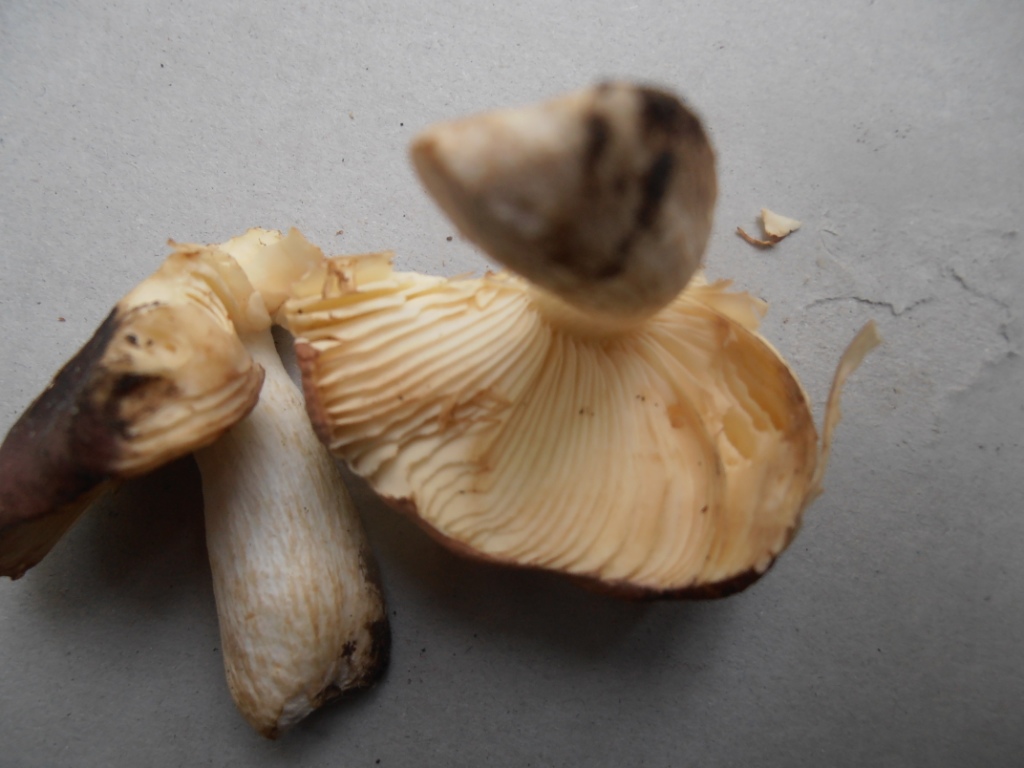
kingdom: Fungi
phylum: Basidiomycota
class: Agaricomycetes
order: Russulales
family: Russulaceae
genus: Russula
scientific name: Russula graveolens
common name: bugtet skørhat
